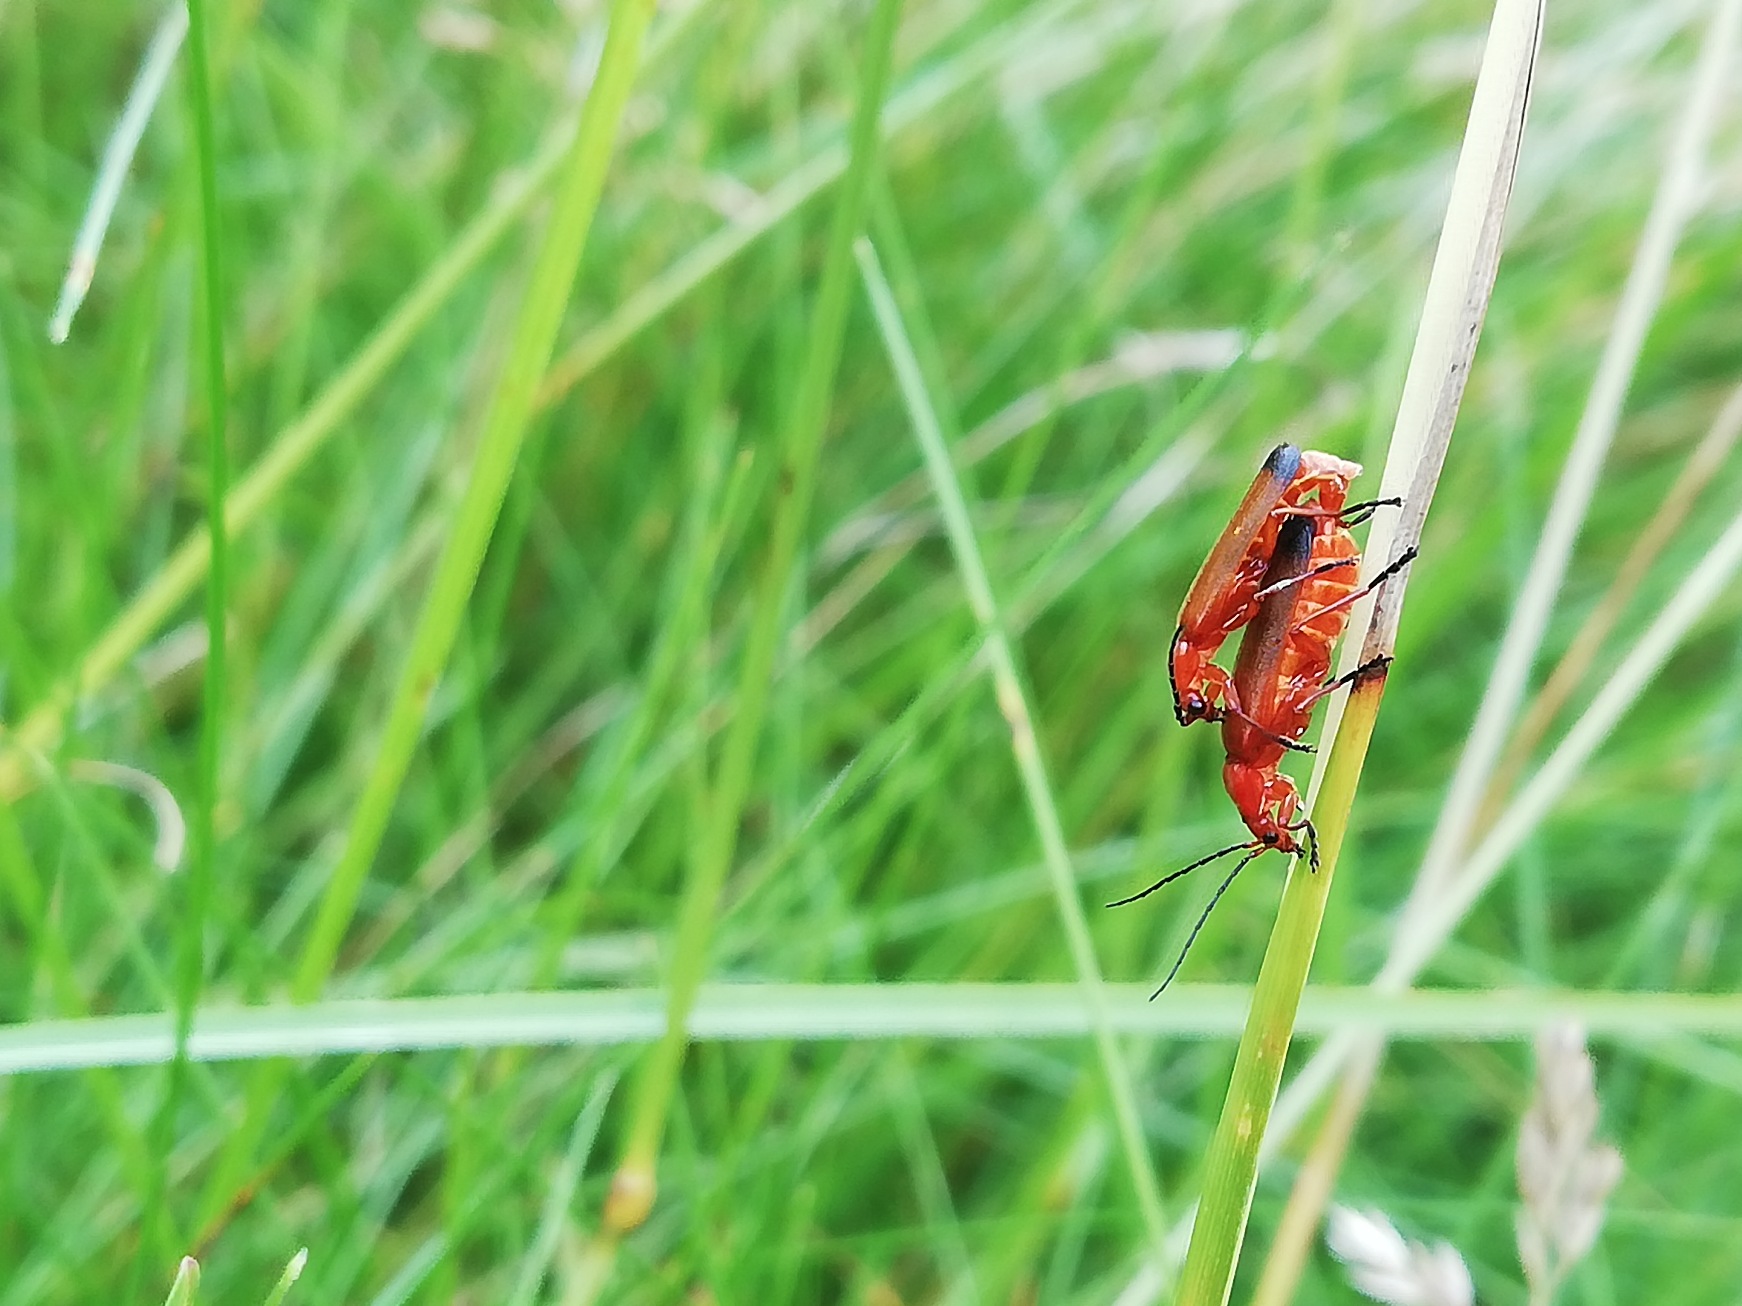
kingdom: Animalia
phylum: Arthropoda
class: Insecta
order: Coleoptera
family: Cantharidae
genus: Rhagonycha
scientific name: Rhagonycha fulva
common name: Præstebille
